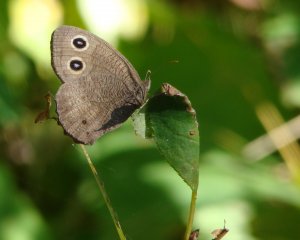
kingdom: Animalia
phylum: Arthropoda
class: Insecta
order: Lepidoptera
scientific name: Lepidoptera
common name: Butterflies
